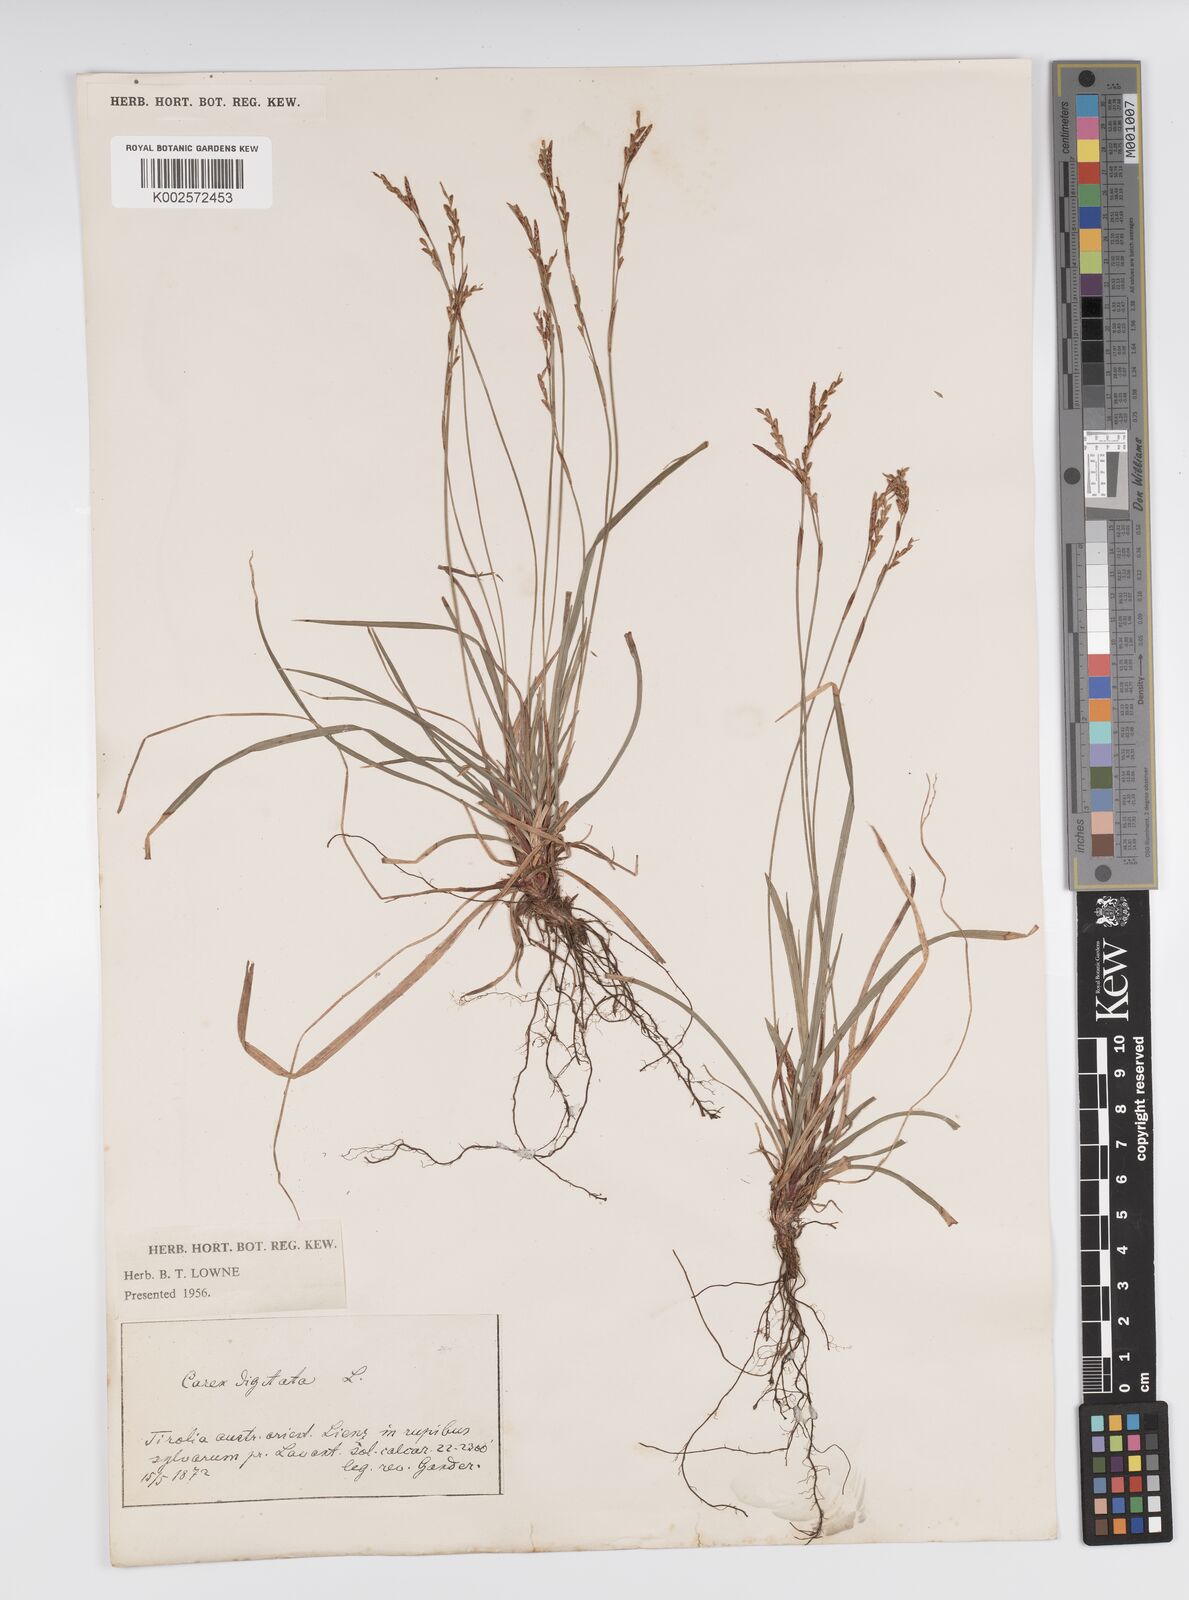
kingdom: Plantae
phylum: Tracheophyta
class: Liliopsida
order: Poales
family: Cyperaceae
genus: Carex
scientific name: Carex digitata
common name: Fingered sedge
